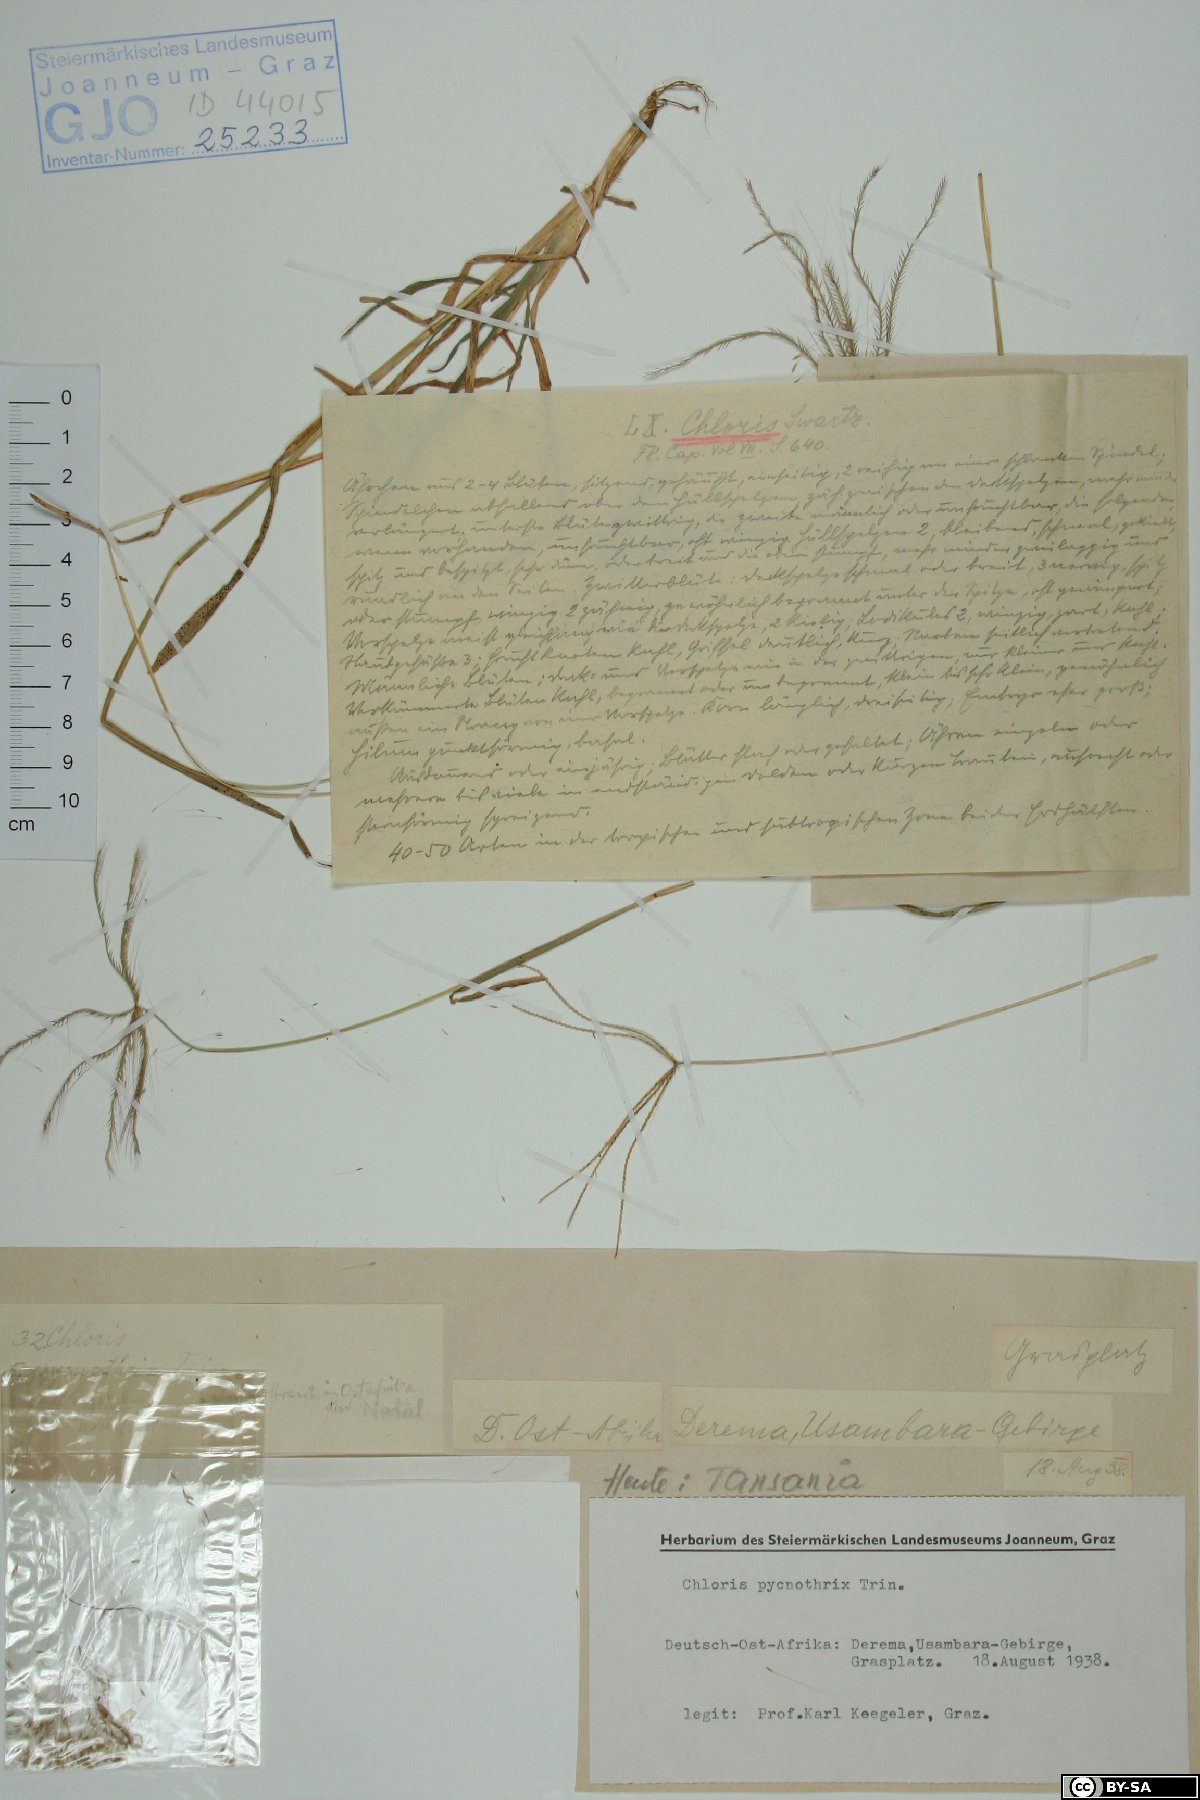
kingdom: Plantae
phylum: Tracheophyta
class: Liliopsida
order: Poales
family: Poaceae
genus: Chloris
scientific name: Chloris pycnothrix
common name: Spiderweb chloris
